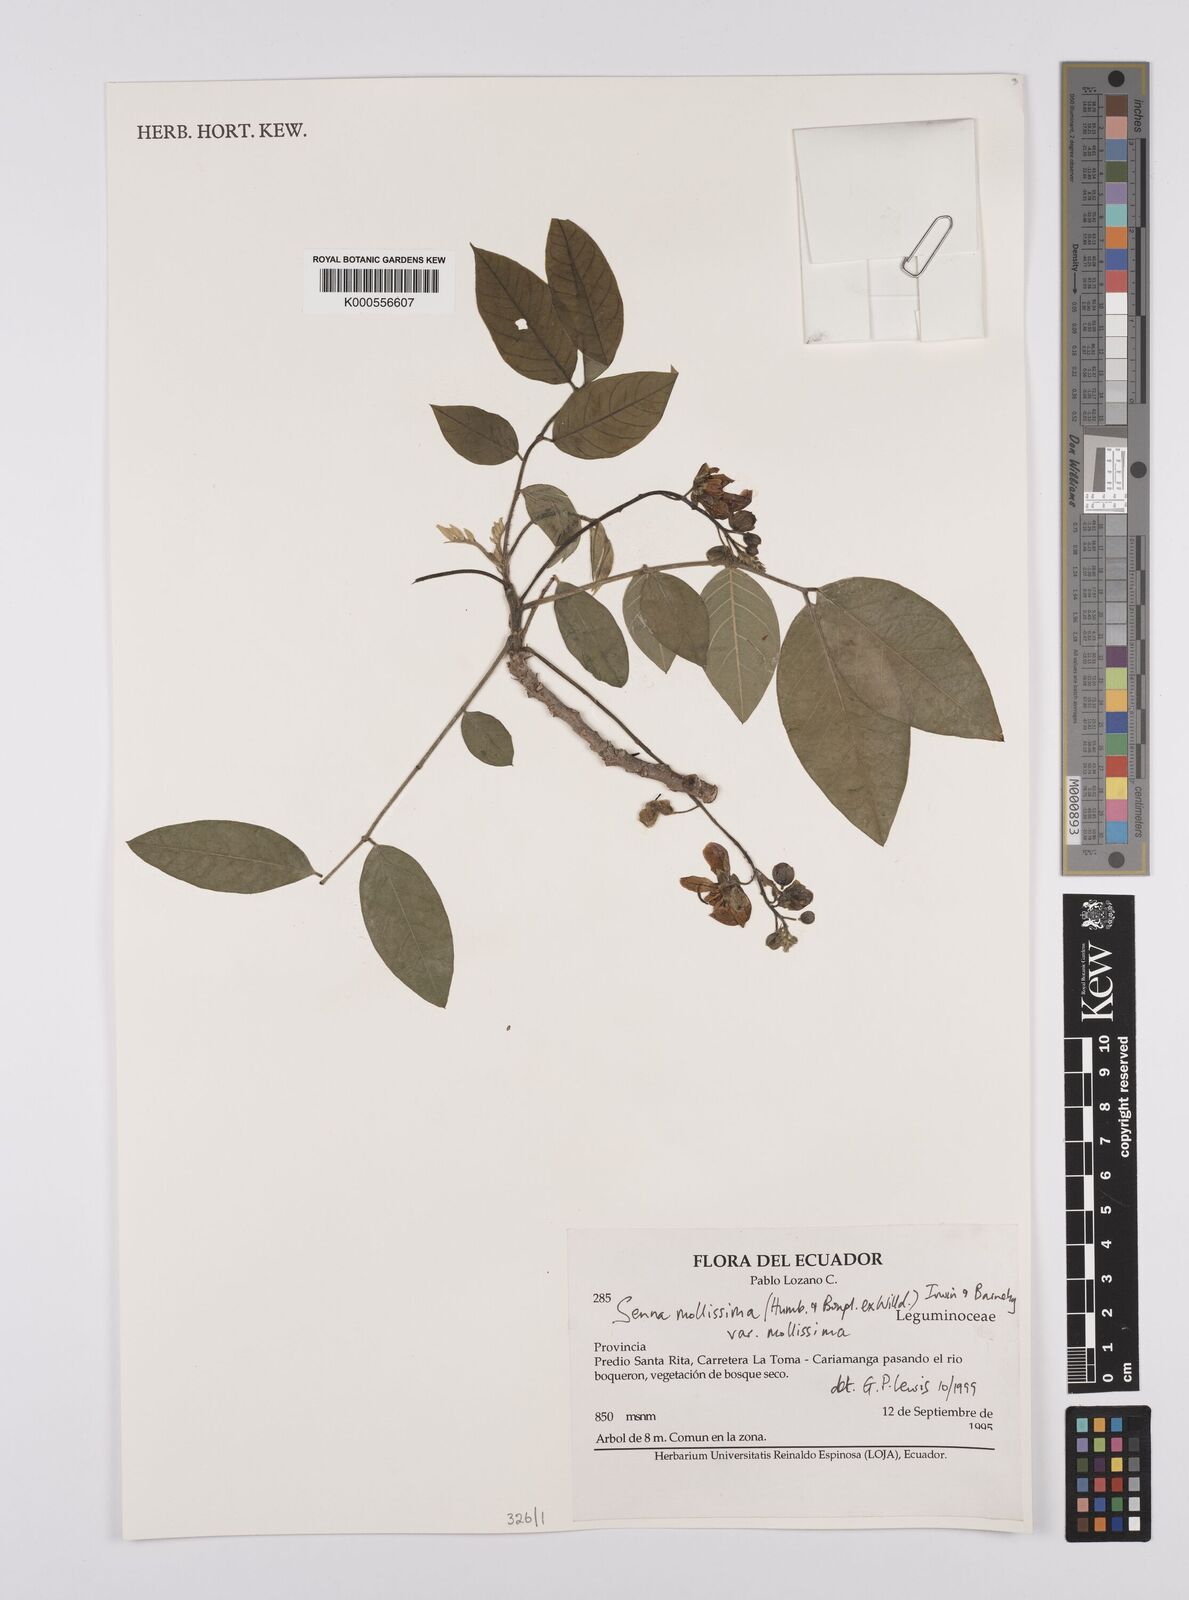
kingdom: Plantae
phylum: Tracheophyta
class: Magnoliopsida
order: Fabales
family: Fabaceae
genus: Senna
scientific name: Senna mollissima
